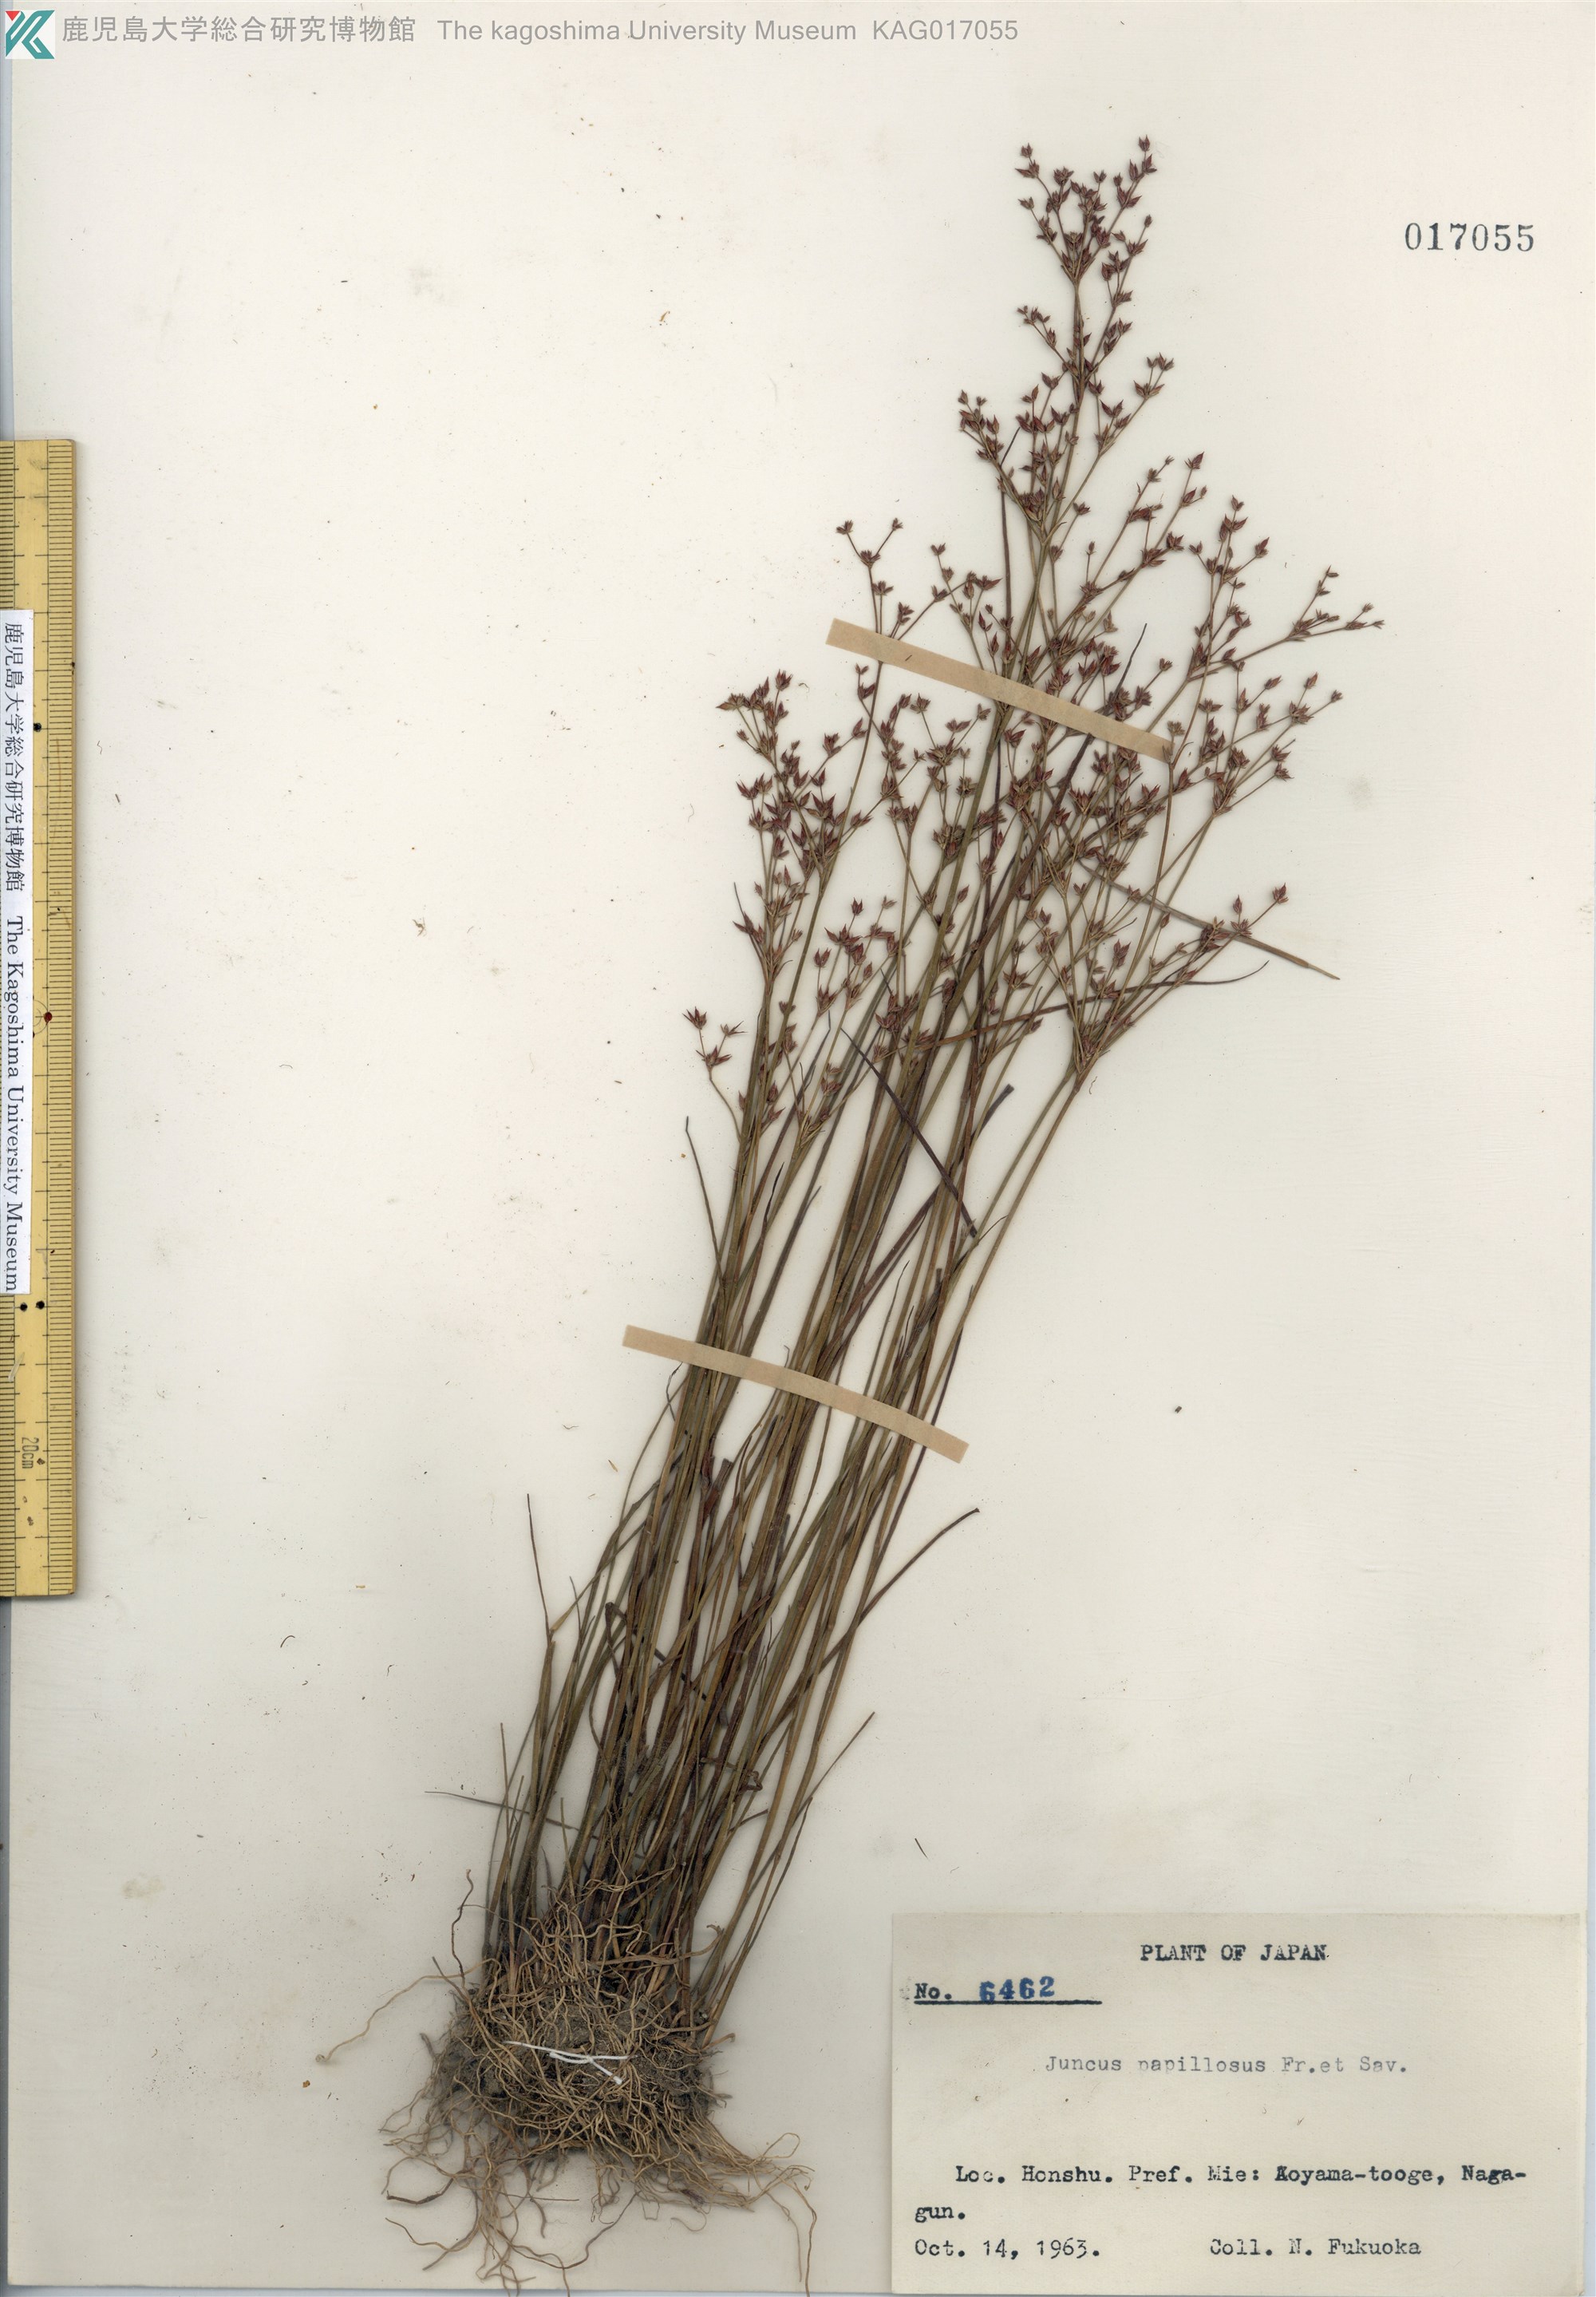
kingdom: Plantae
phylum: Tracheophyta
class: Liliopsida
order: Poales
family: Juncaceae
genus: Juncus
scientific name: Juncus papillosus
